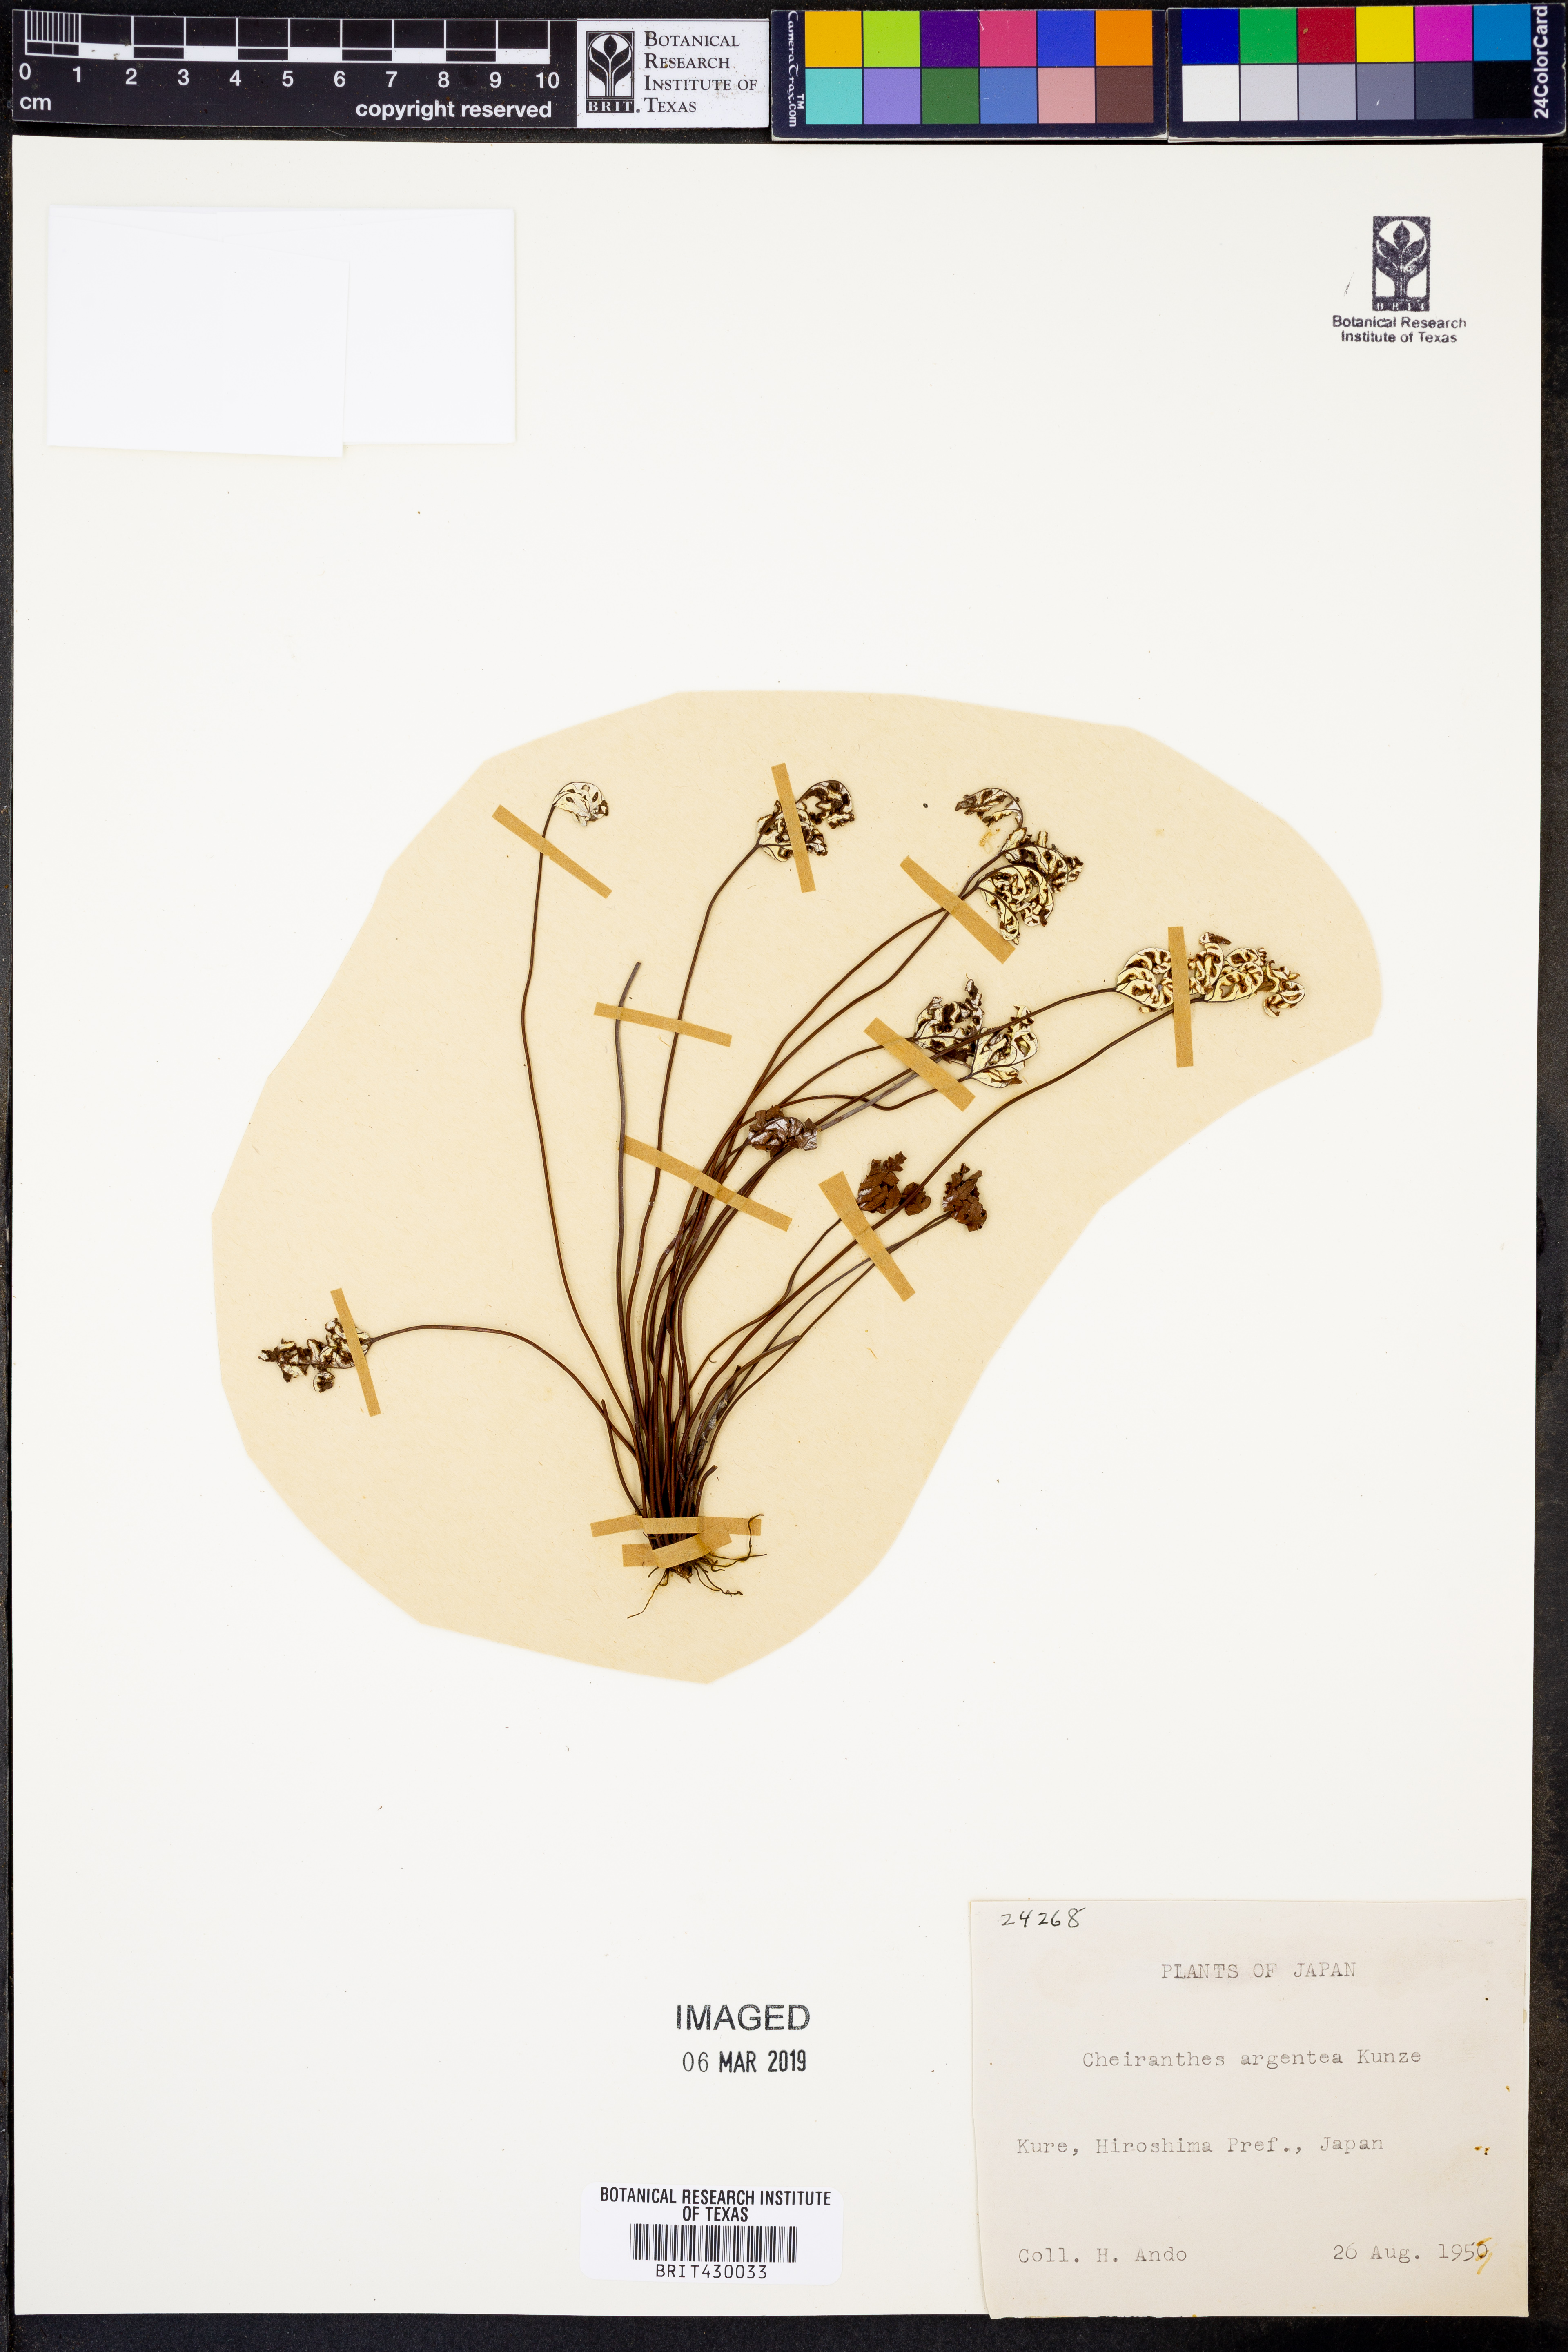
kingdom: Plantae
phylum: Tracheophyta
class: Polypodiopsida
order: Polypodiales
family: Pteridaceae
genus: Aleuritopteris
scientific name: Aleuritopteris argentea
